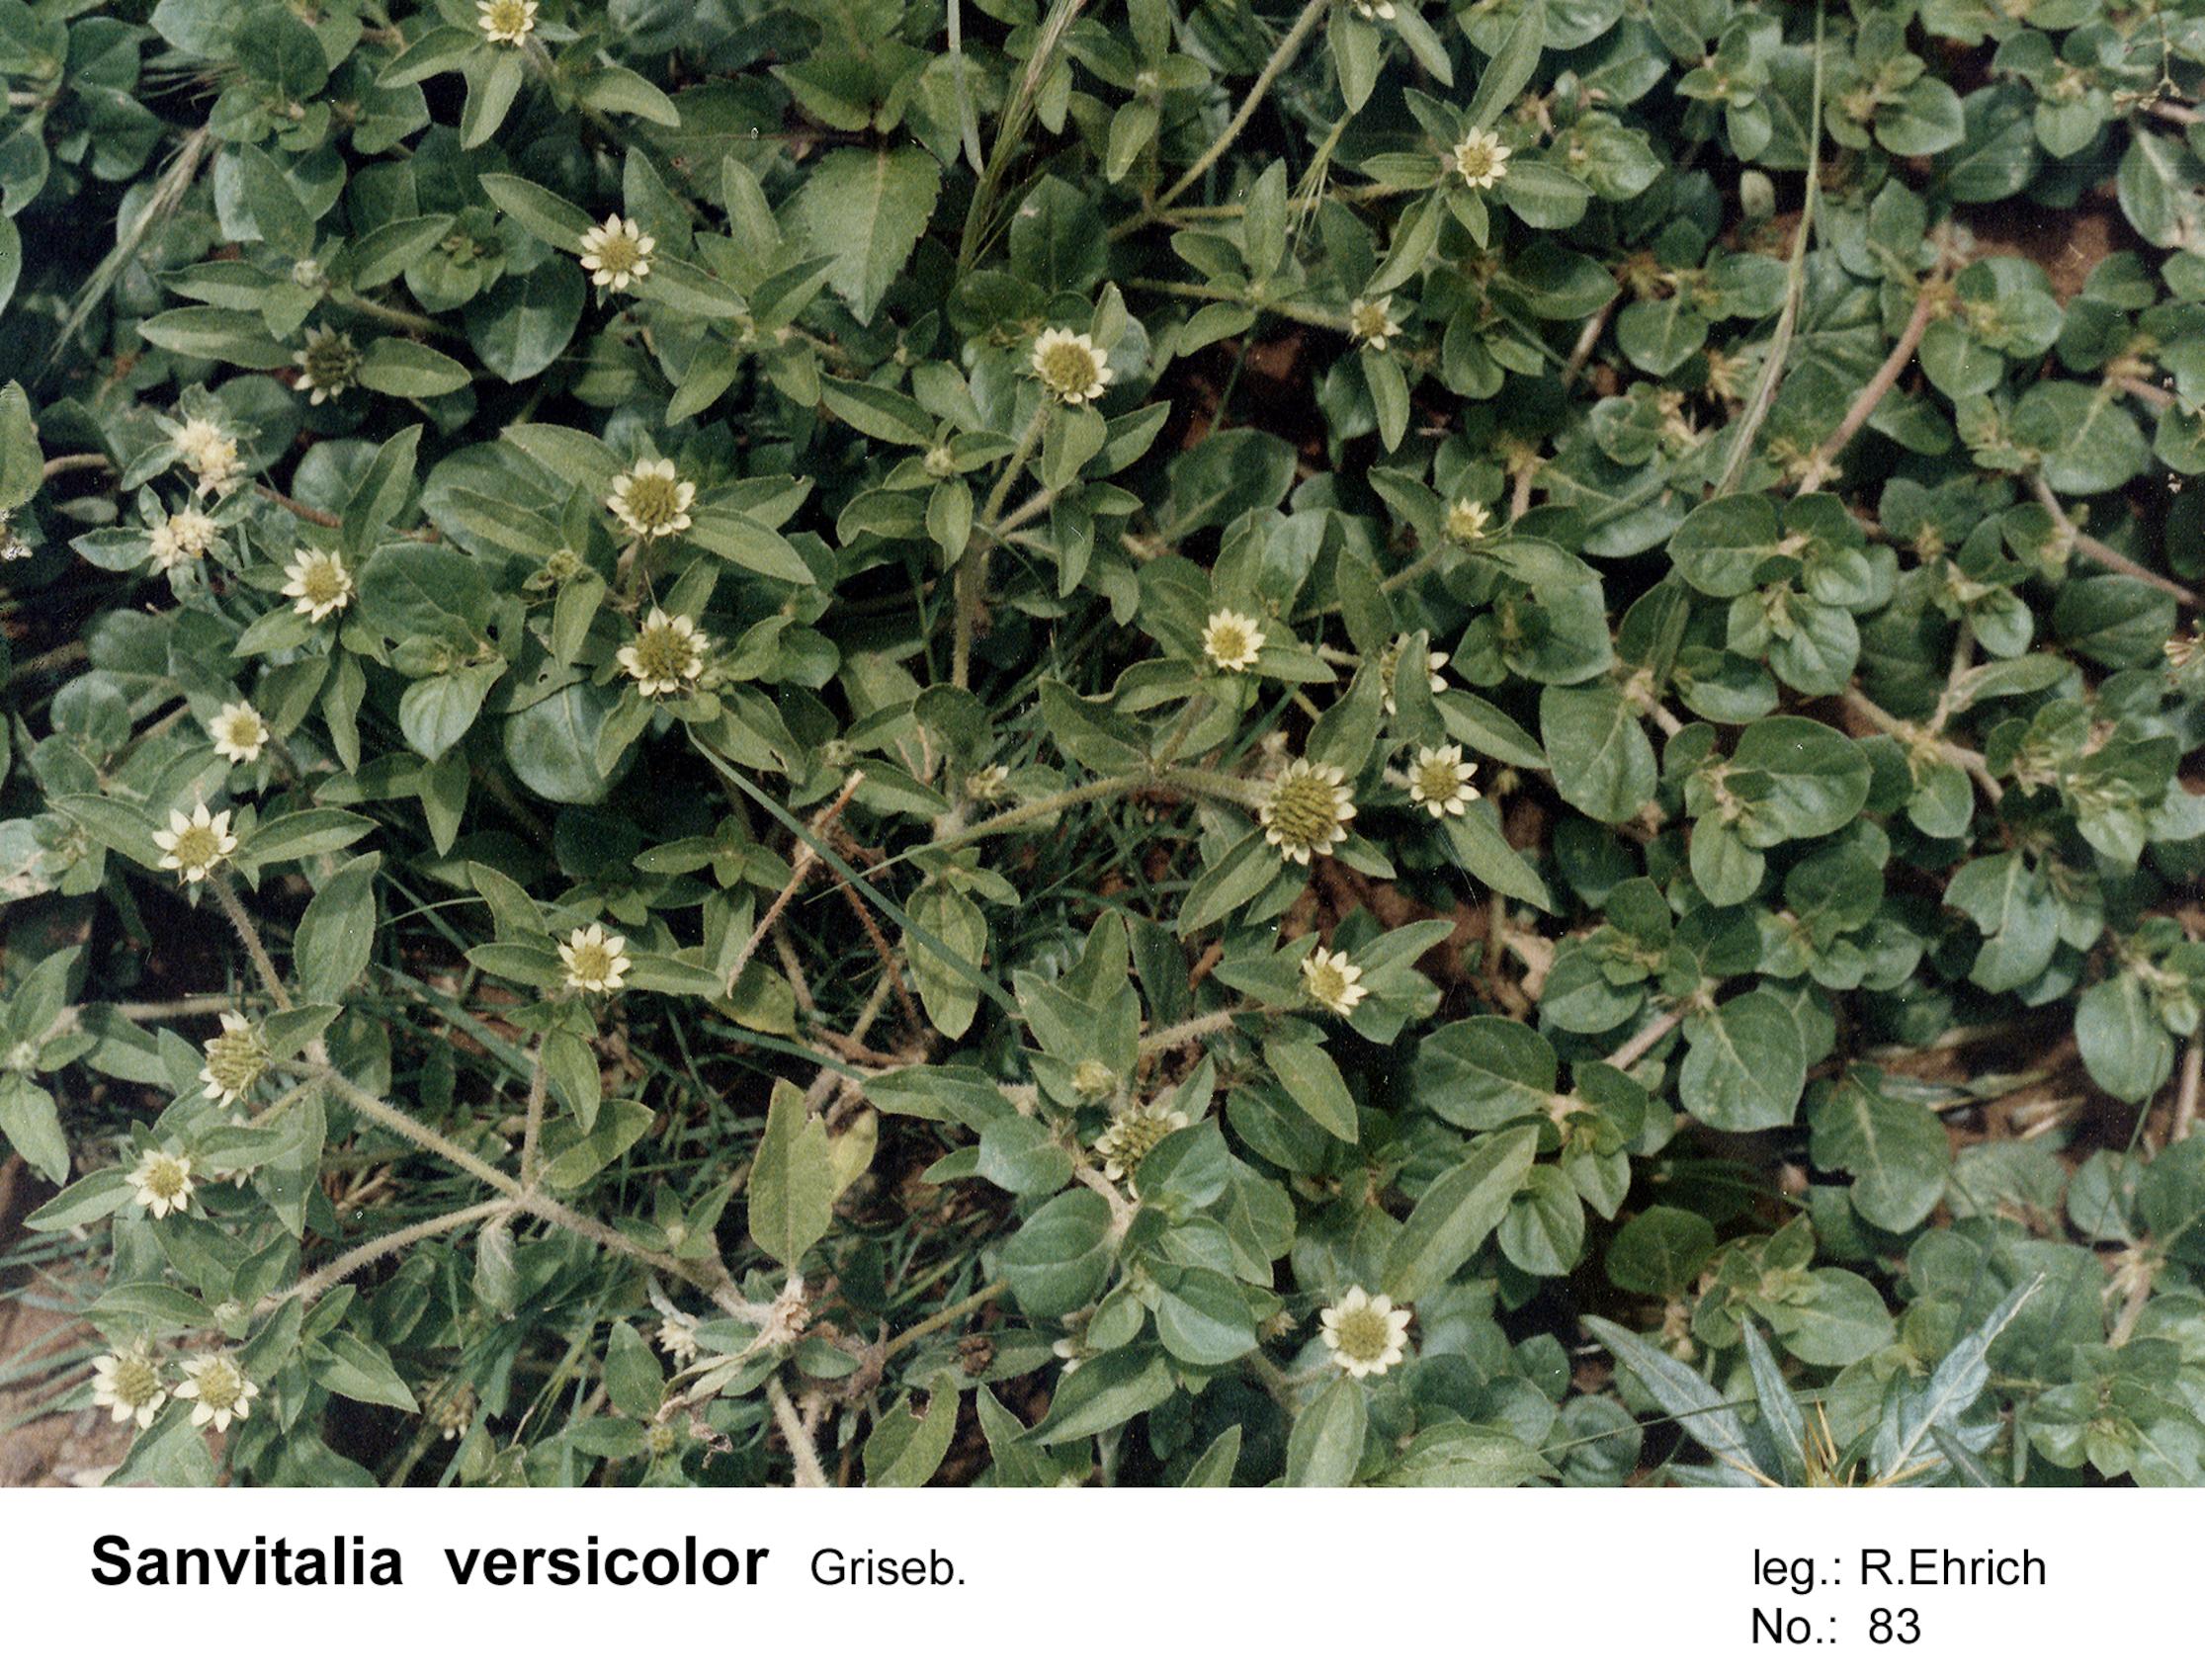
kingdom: Plantae
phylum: Tracheophyta
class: Magnoliopsida
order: Asterales
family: Asteraceae
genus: Sanvitalia
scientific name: Sanvitalia versicolor
